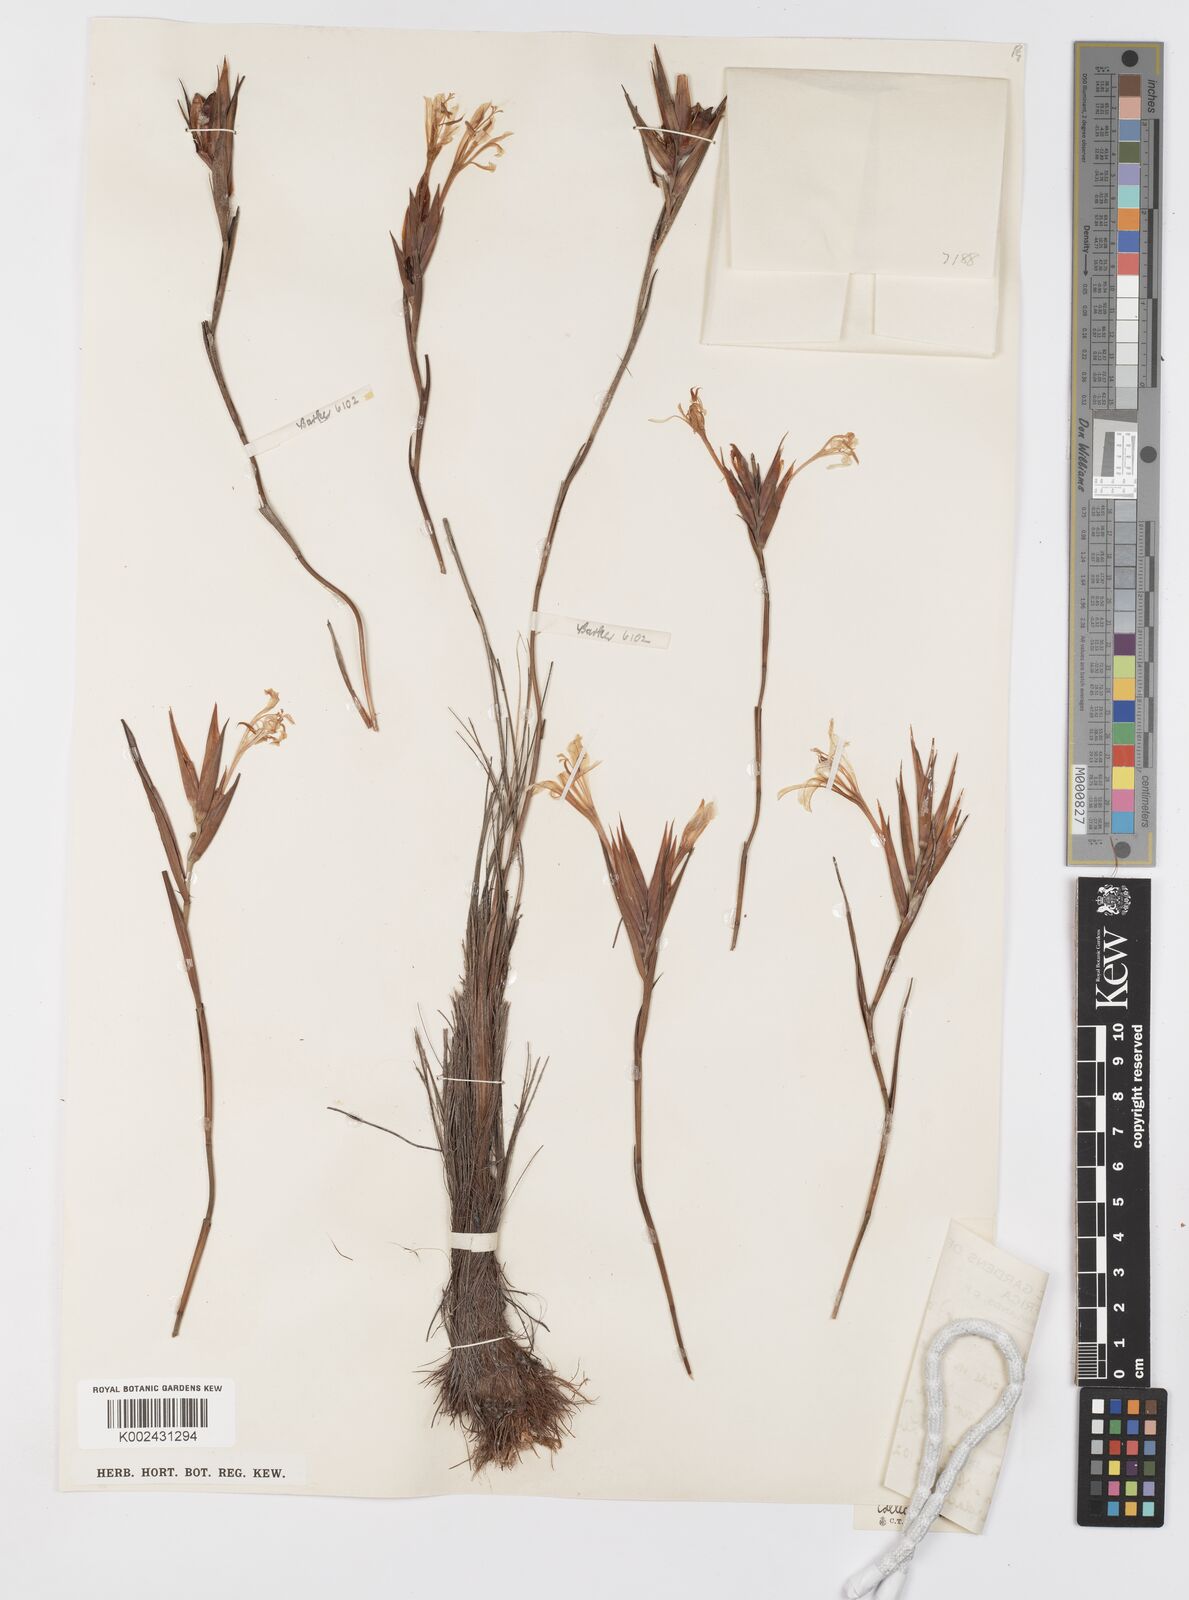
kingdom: Plantae
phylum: Tracheophyta
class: Liliopsida
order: Asparagales
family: Iridaceae
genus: Tritoniopsis
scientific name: Tritoniopsis flexuosa
